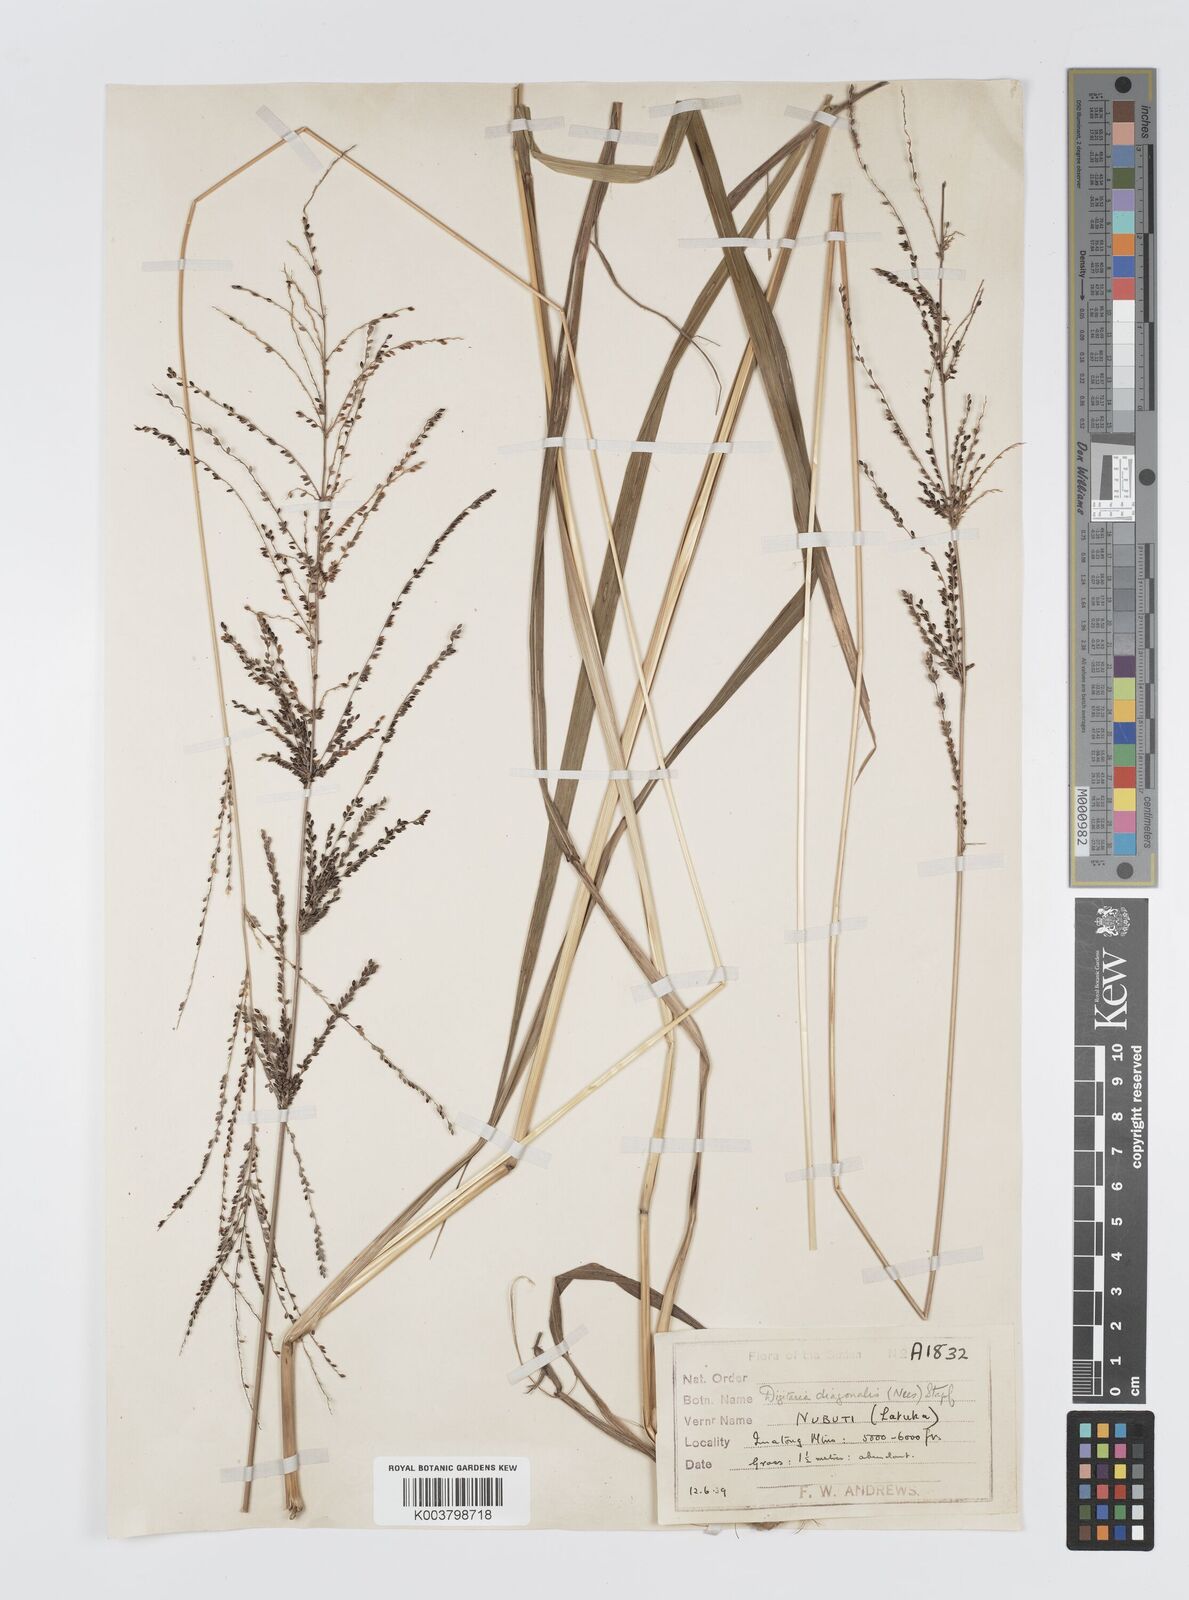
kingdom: Plantae
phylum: Tracheophyta
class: Liliopsida
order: Poales
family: Poaceae
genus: Digitaria
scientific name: Digitaria diagonalis
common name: Brown-seed finger grass
